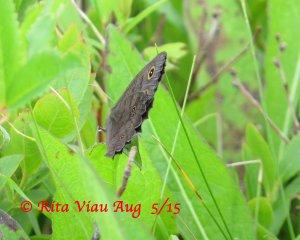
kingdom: Animalia
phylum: Arthropoda
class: Insecta
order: Lepidoptera
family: Nymphalidae
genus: Cercyonis
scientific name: Cercyonis pegala
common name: Common Wood-Nymph
